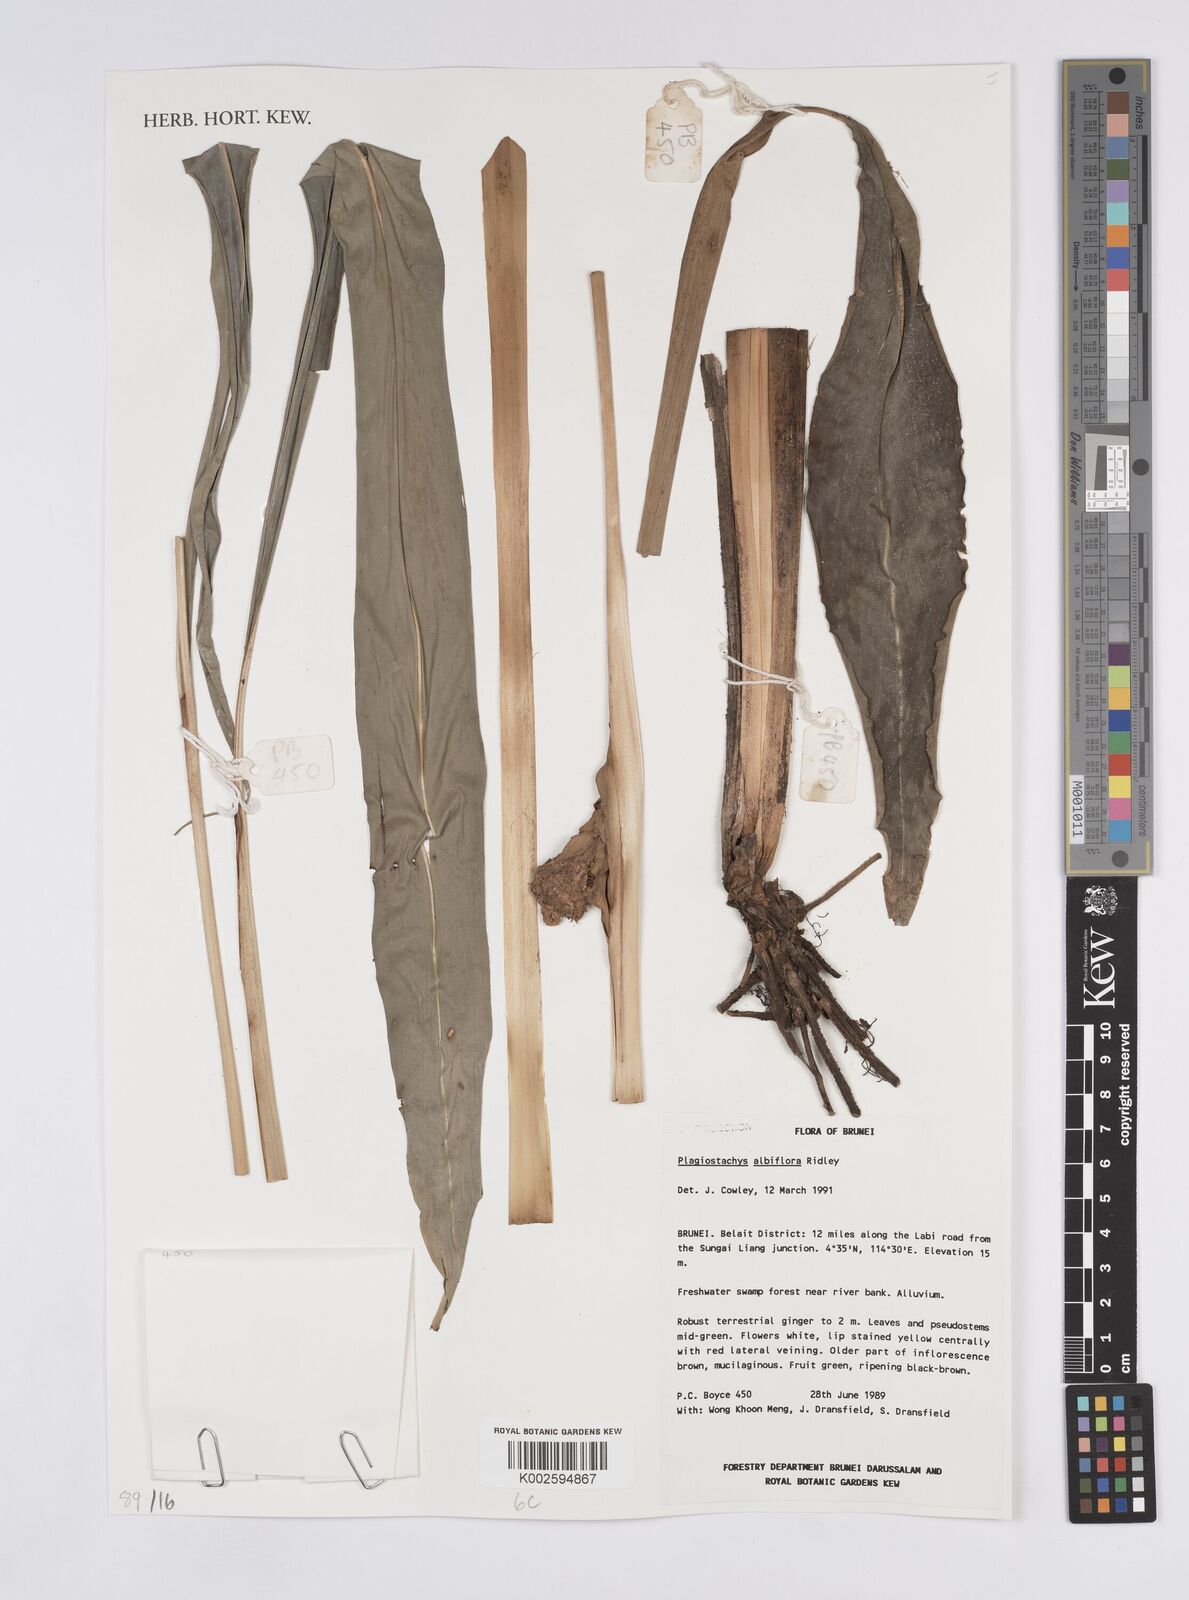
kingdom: Plantae
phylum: Tracheophyta
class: Liliopsida
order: Zingiberales
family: Zingiberaceae
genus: Plagiostachys
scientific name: Plagiostachys albiflora
